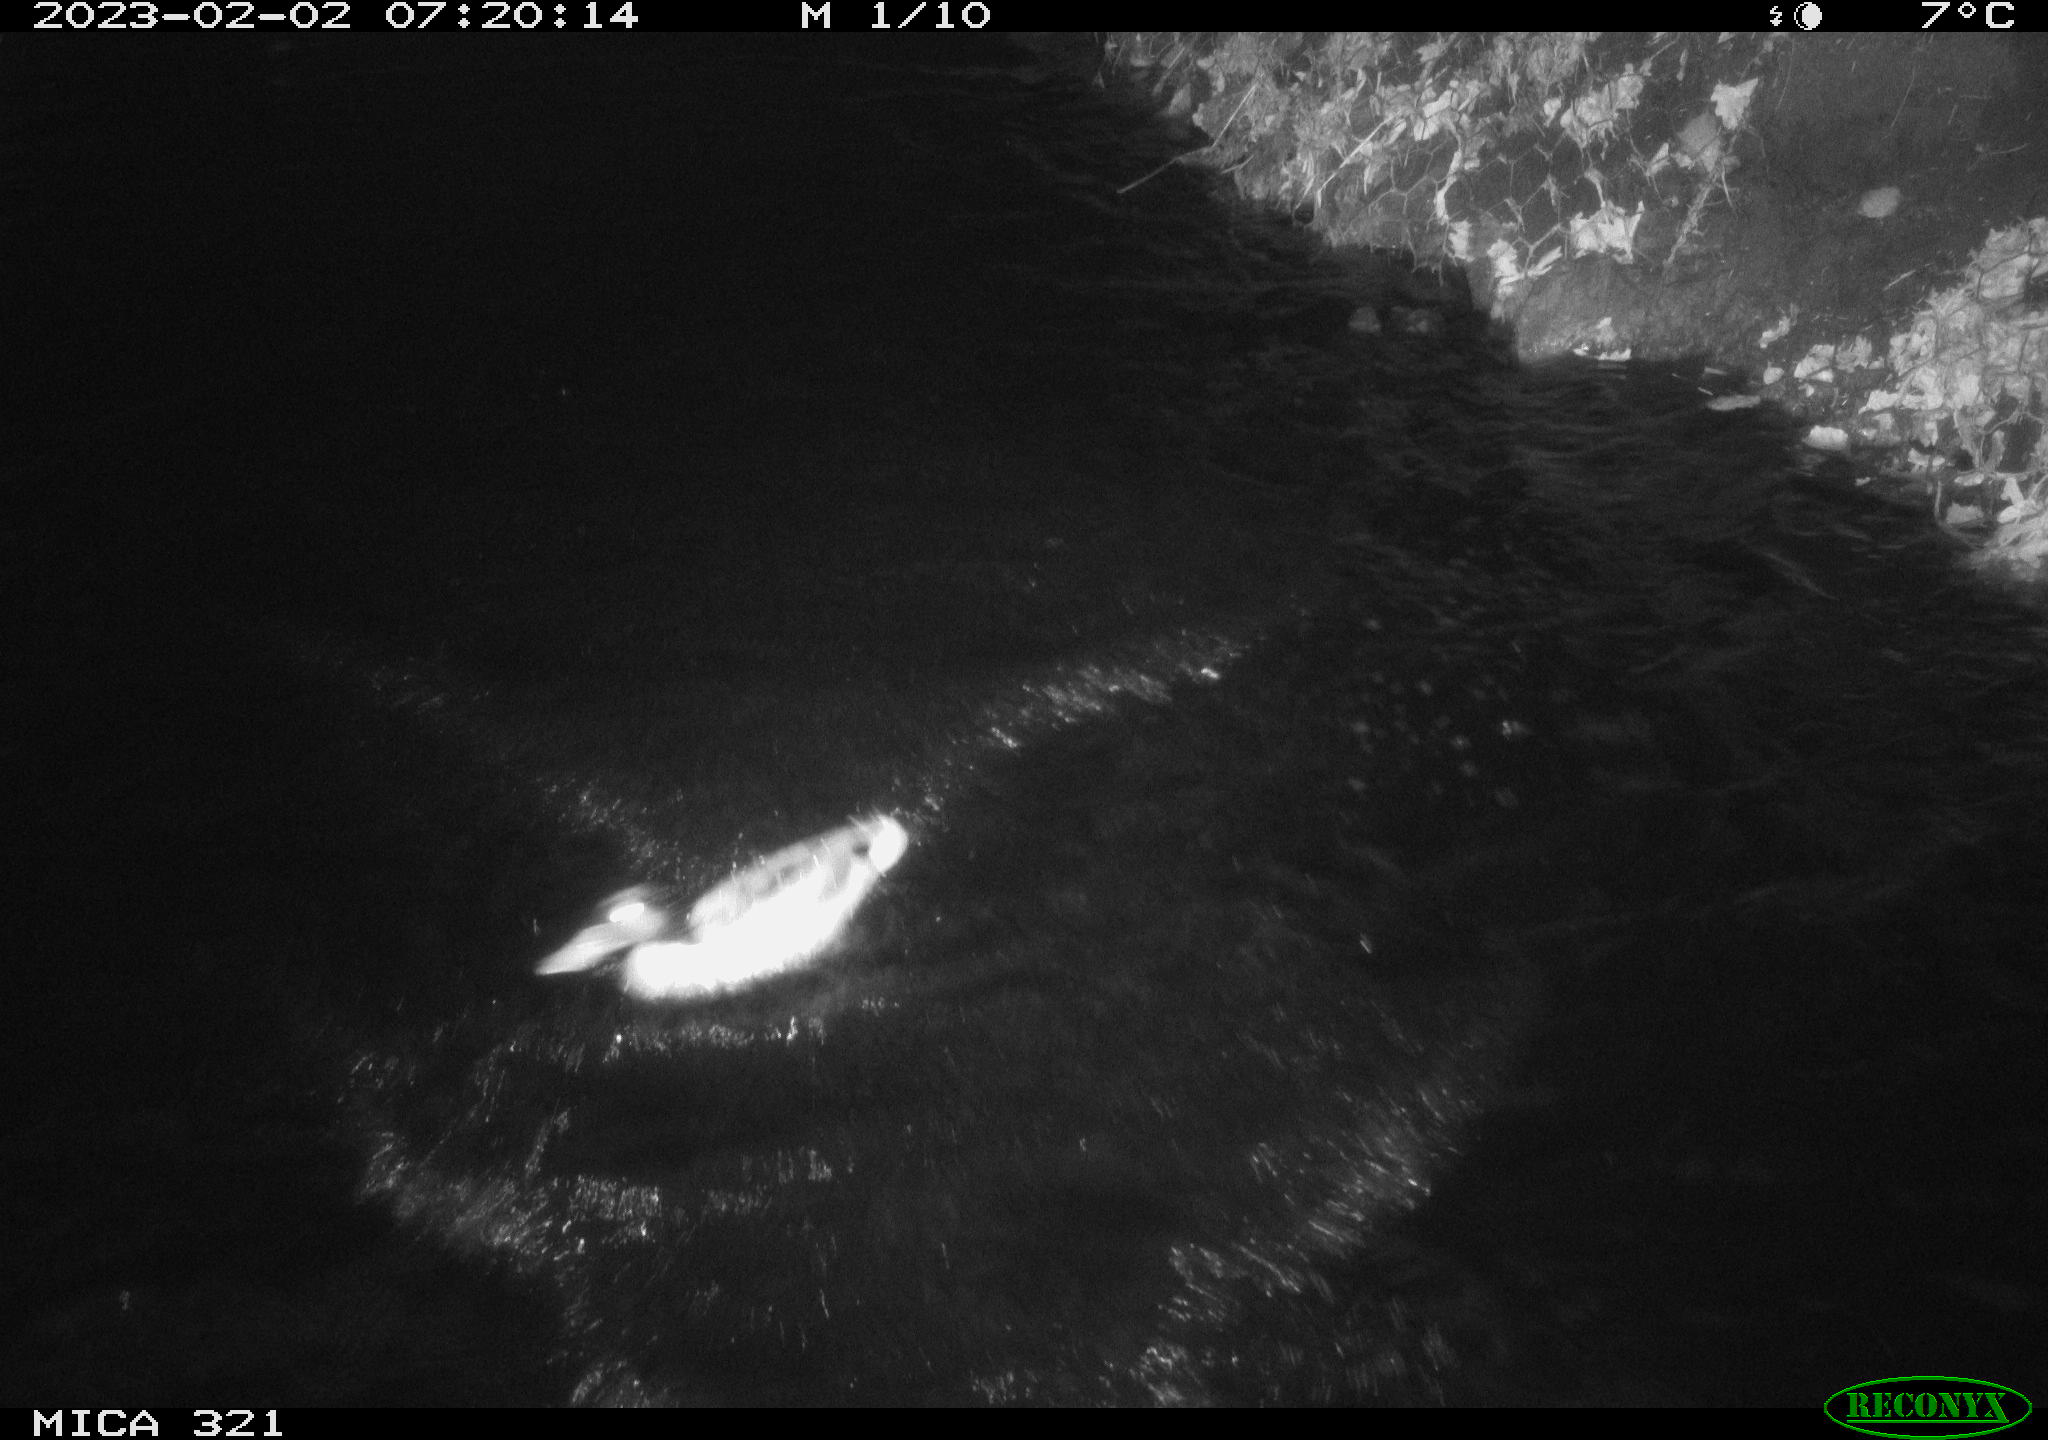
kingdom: Animalia
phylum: Chordata
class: Aves
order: Anseriformes
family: Anatidae
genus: Anas
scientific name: Anas
